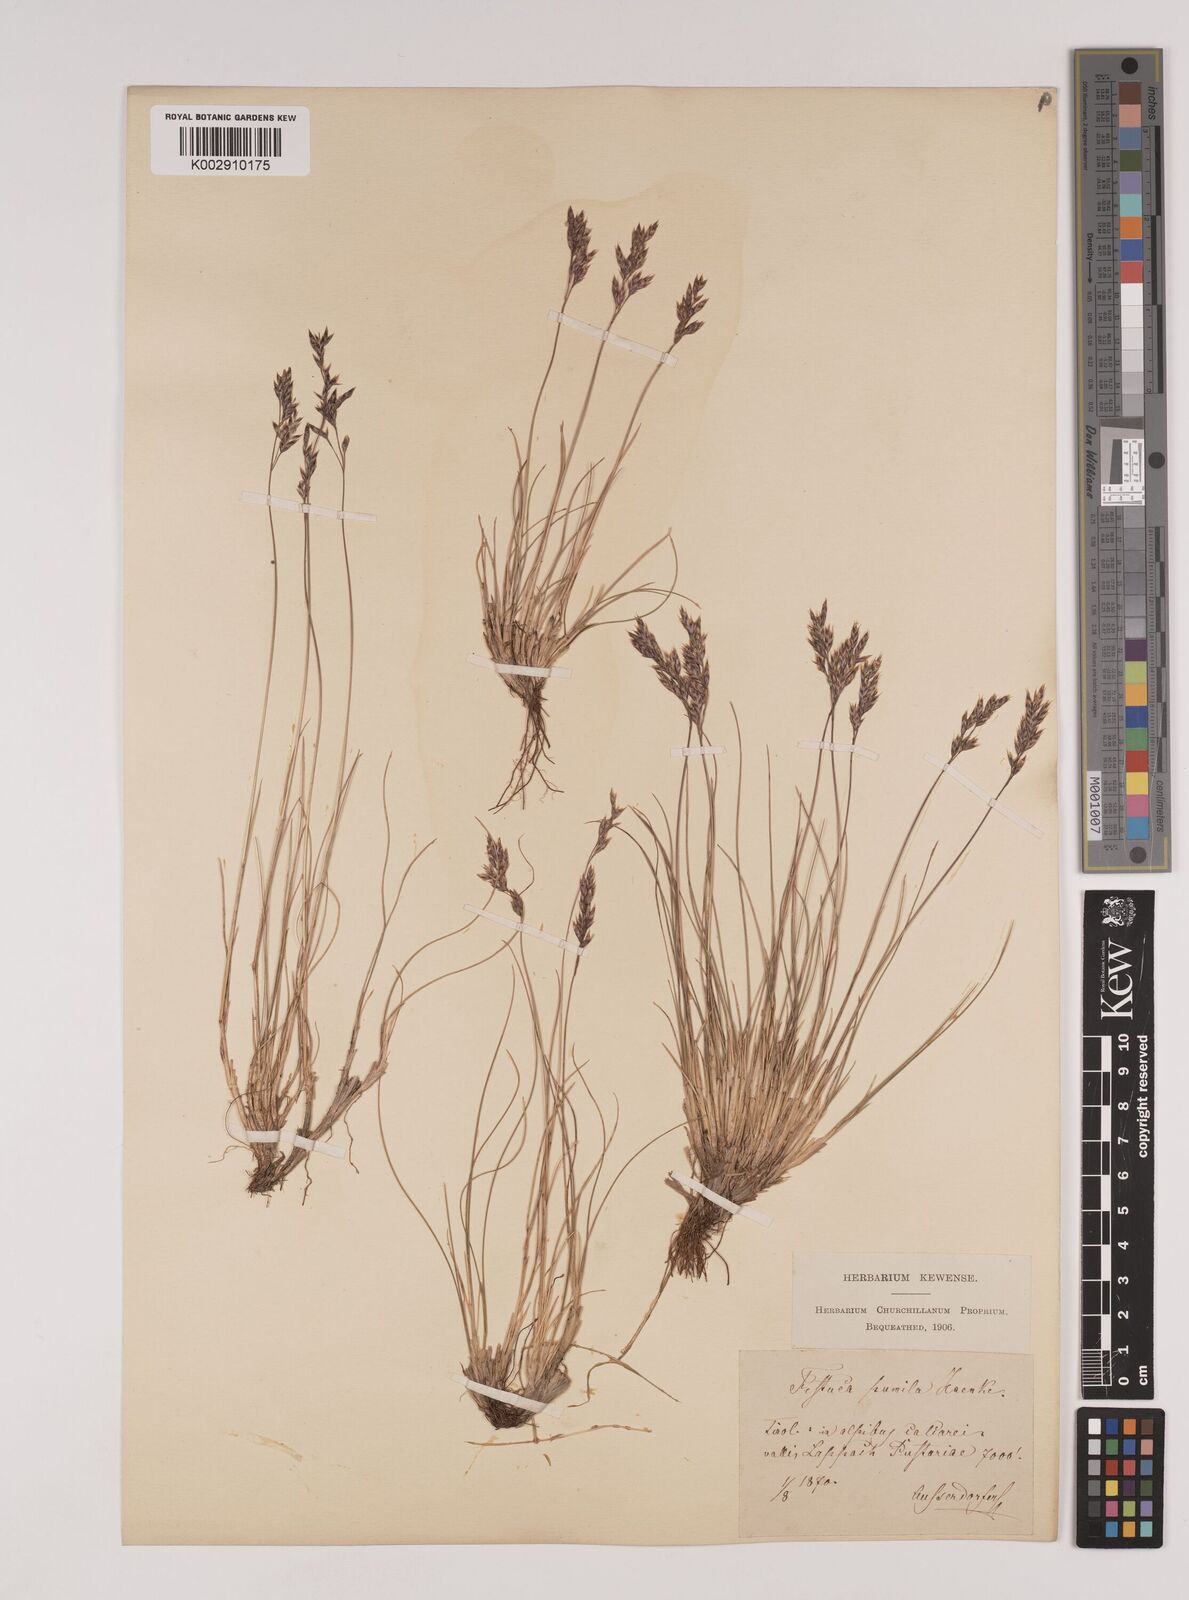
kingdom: Plantae
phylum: Tracheophyta
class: Liliopsida
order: Poales
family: Poaceae
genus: Festuca
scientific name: Festuca quadriflora
